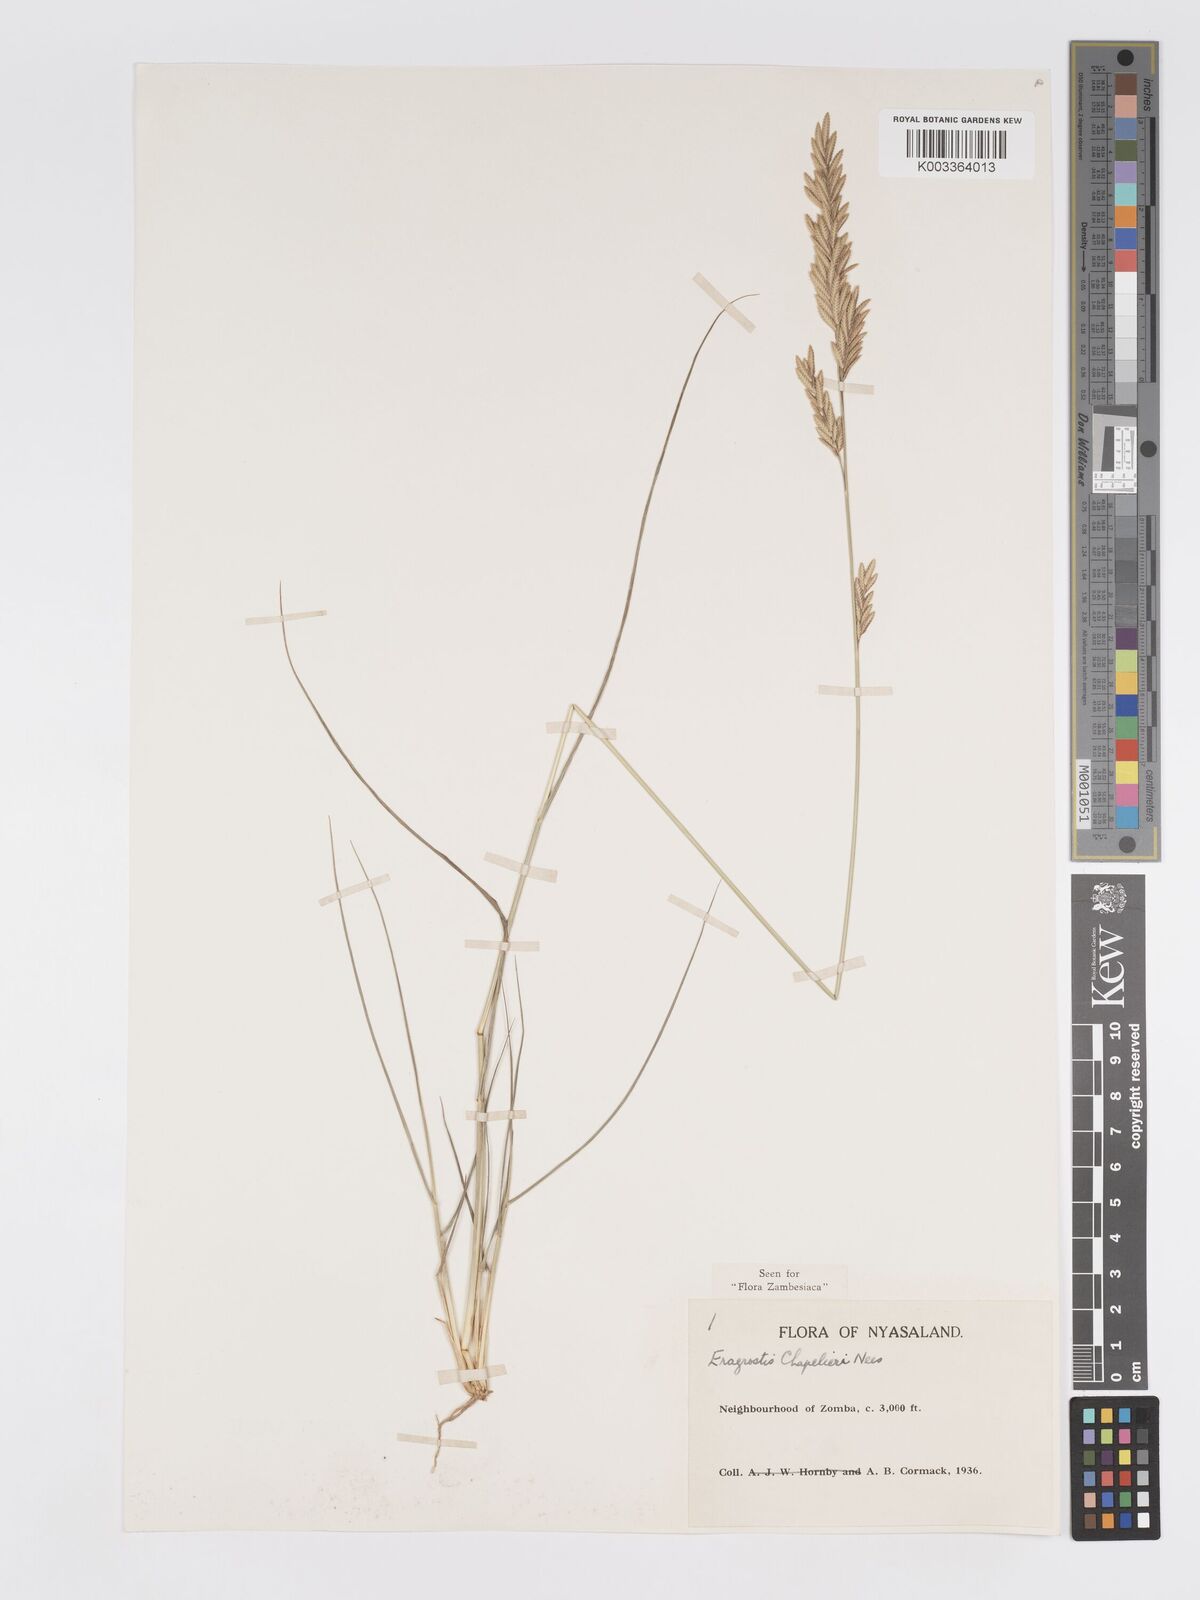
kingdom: Plantae
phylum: Tracheophyta
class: Liliopsida
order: Poales
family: Poaceae
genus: Eragrostis
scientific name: Eragrostis chapelieri
